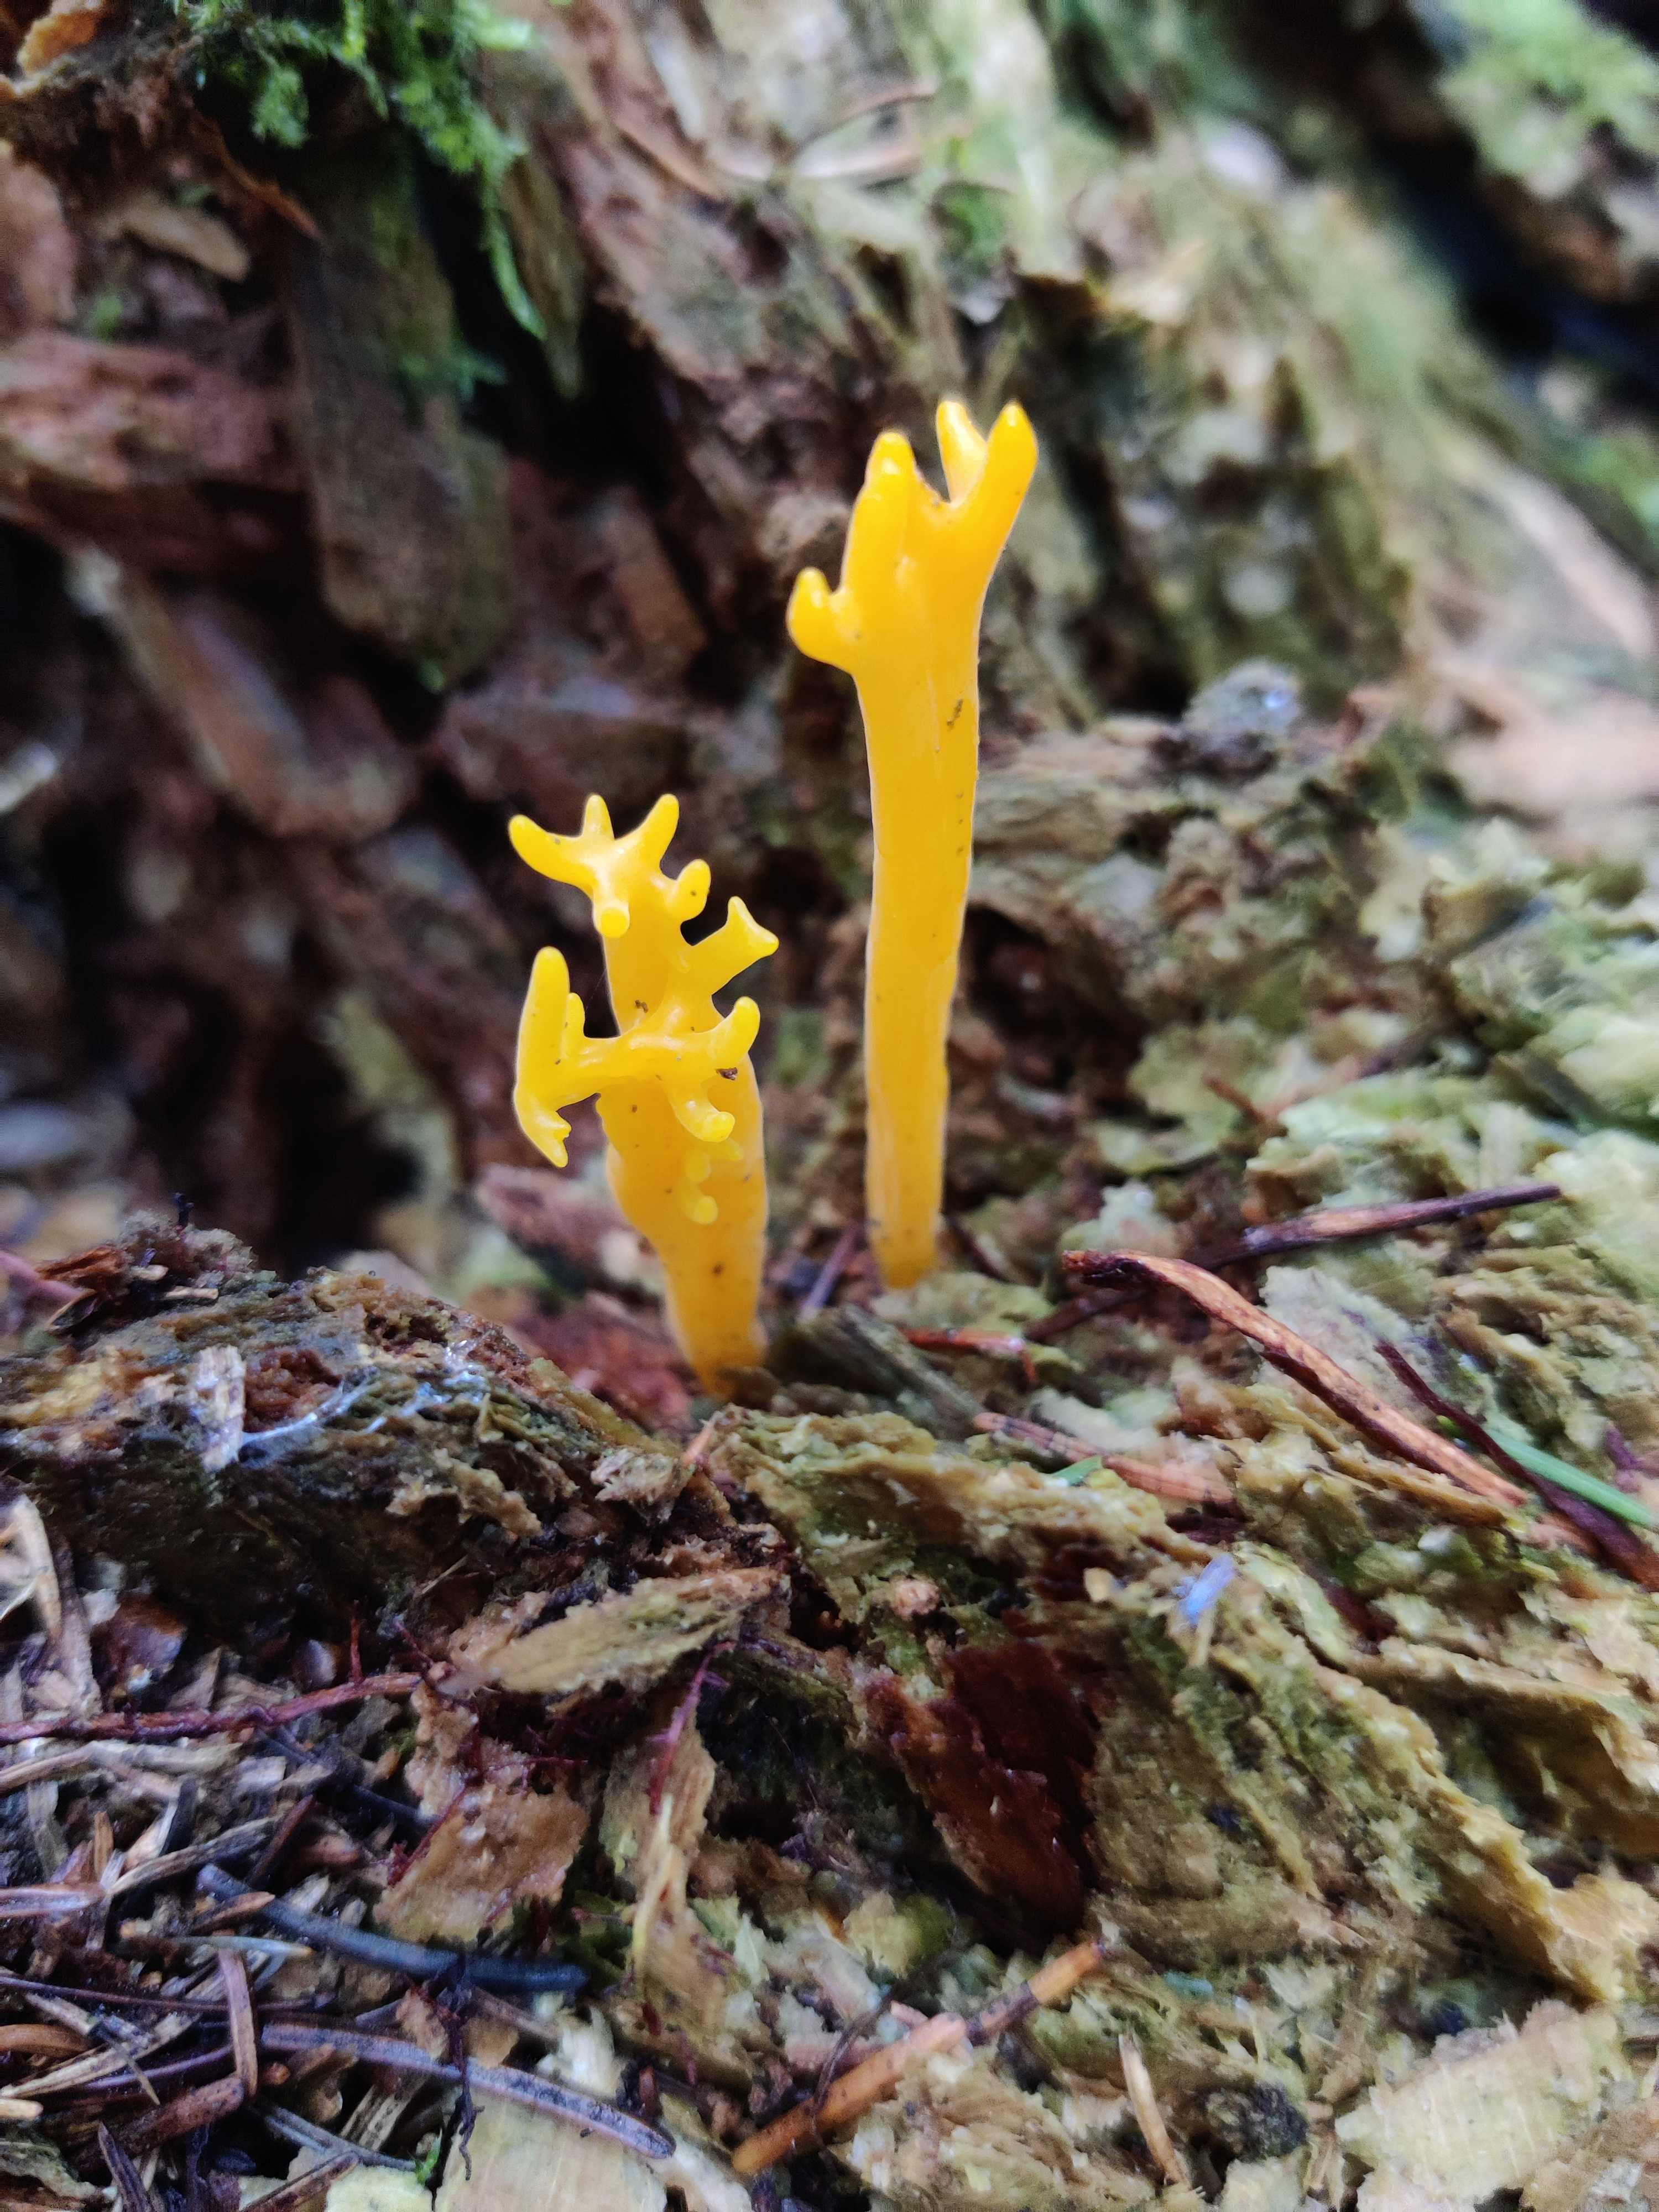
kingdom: Fungi
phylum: Basidiomycota
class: Dacrymycetes
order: Dacrymycetales
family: Dacrymycetaceae
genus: Calocera
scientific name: Calocera viscosa
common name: almindelig guldgaffel
